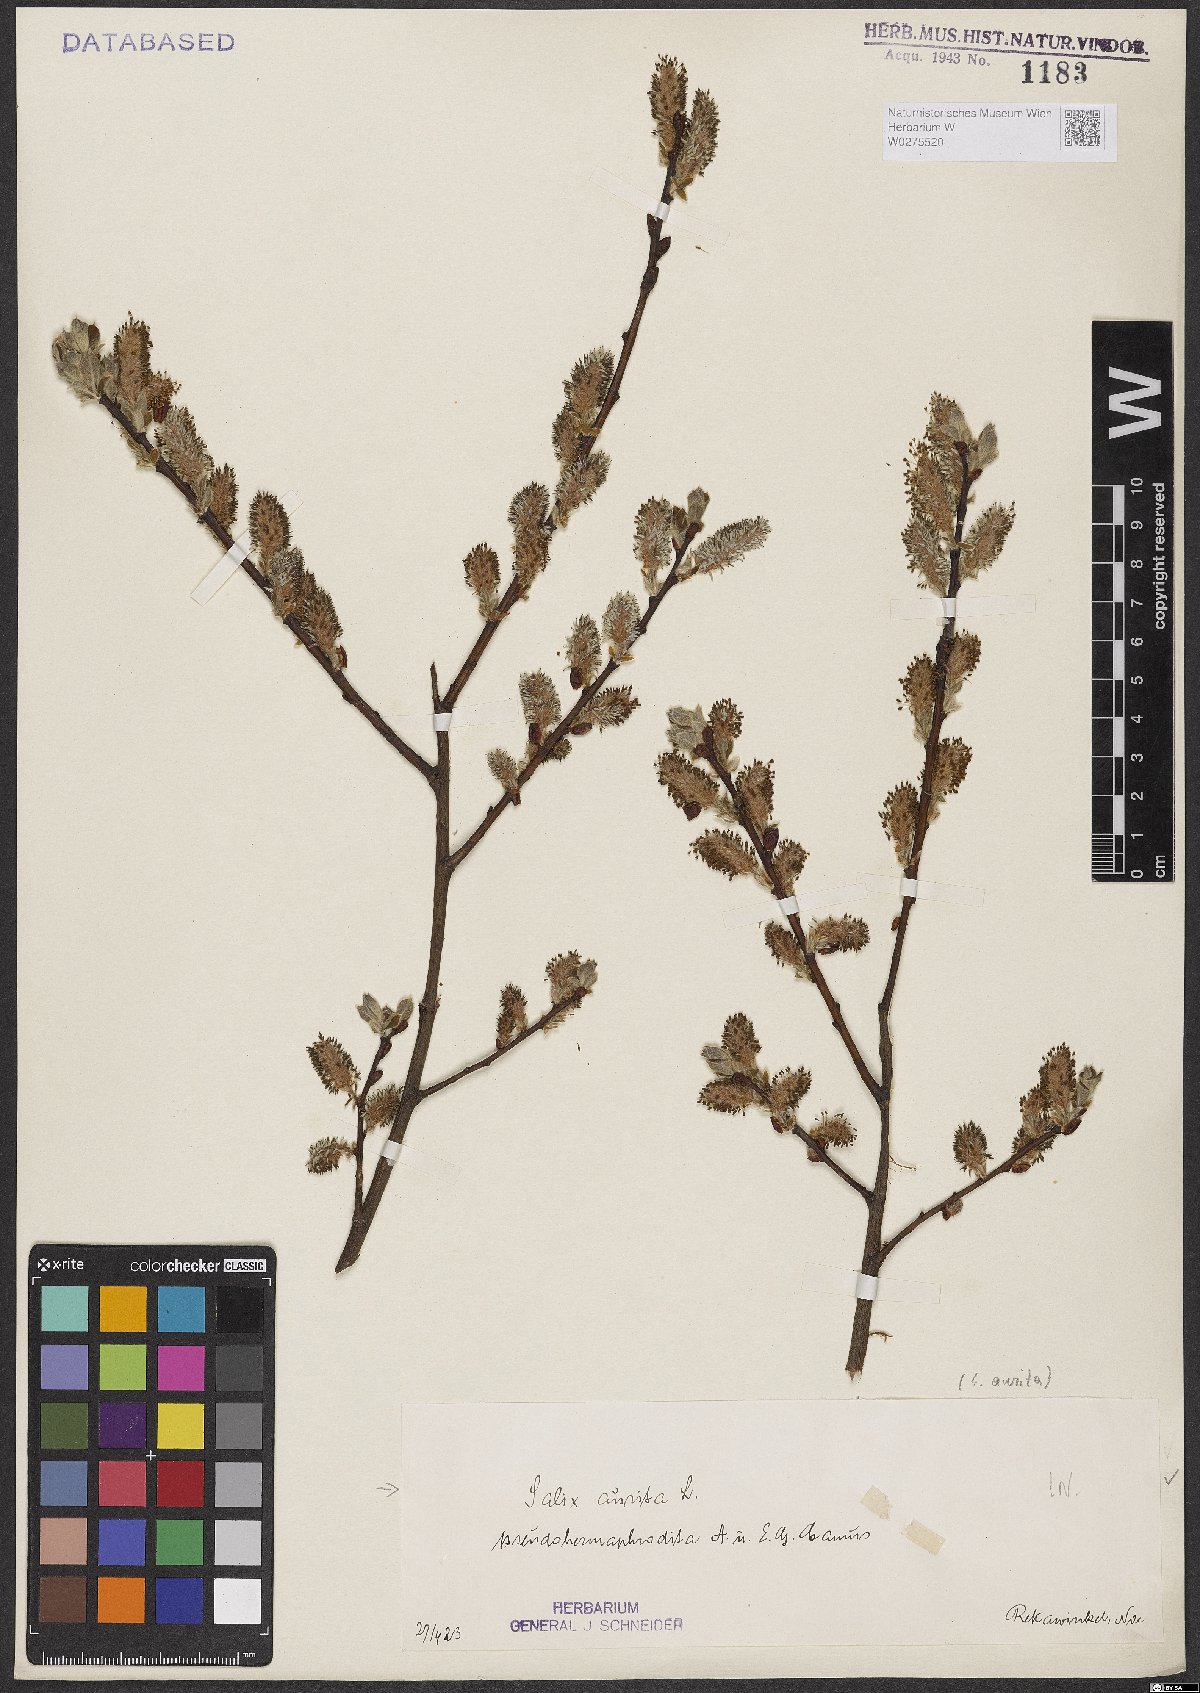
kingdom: Plantae
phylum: Tracheophyta
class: Magnoliopsida
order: Malpighiales
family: Salicaceae
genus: Salix
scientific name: Salix aurita
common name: Eared willow
